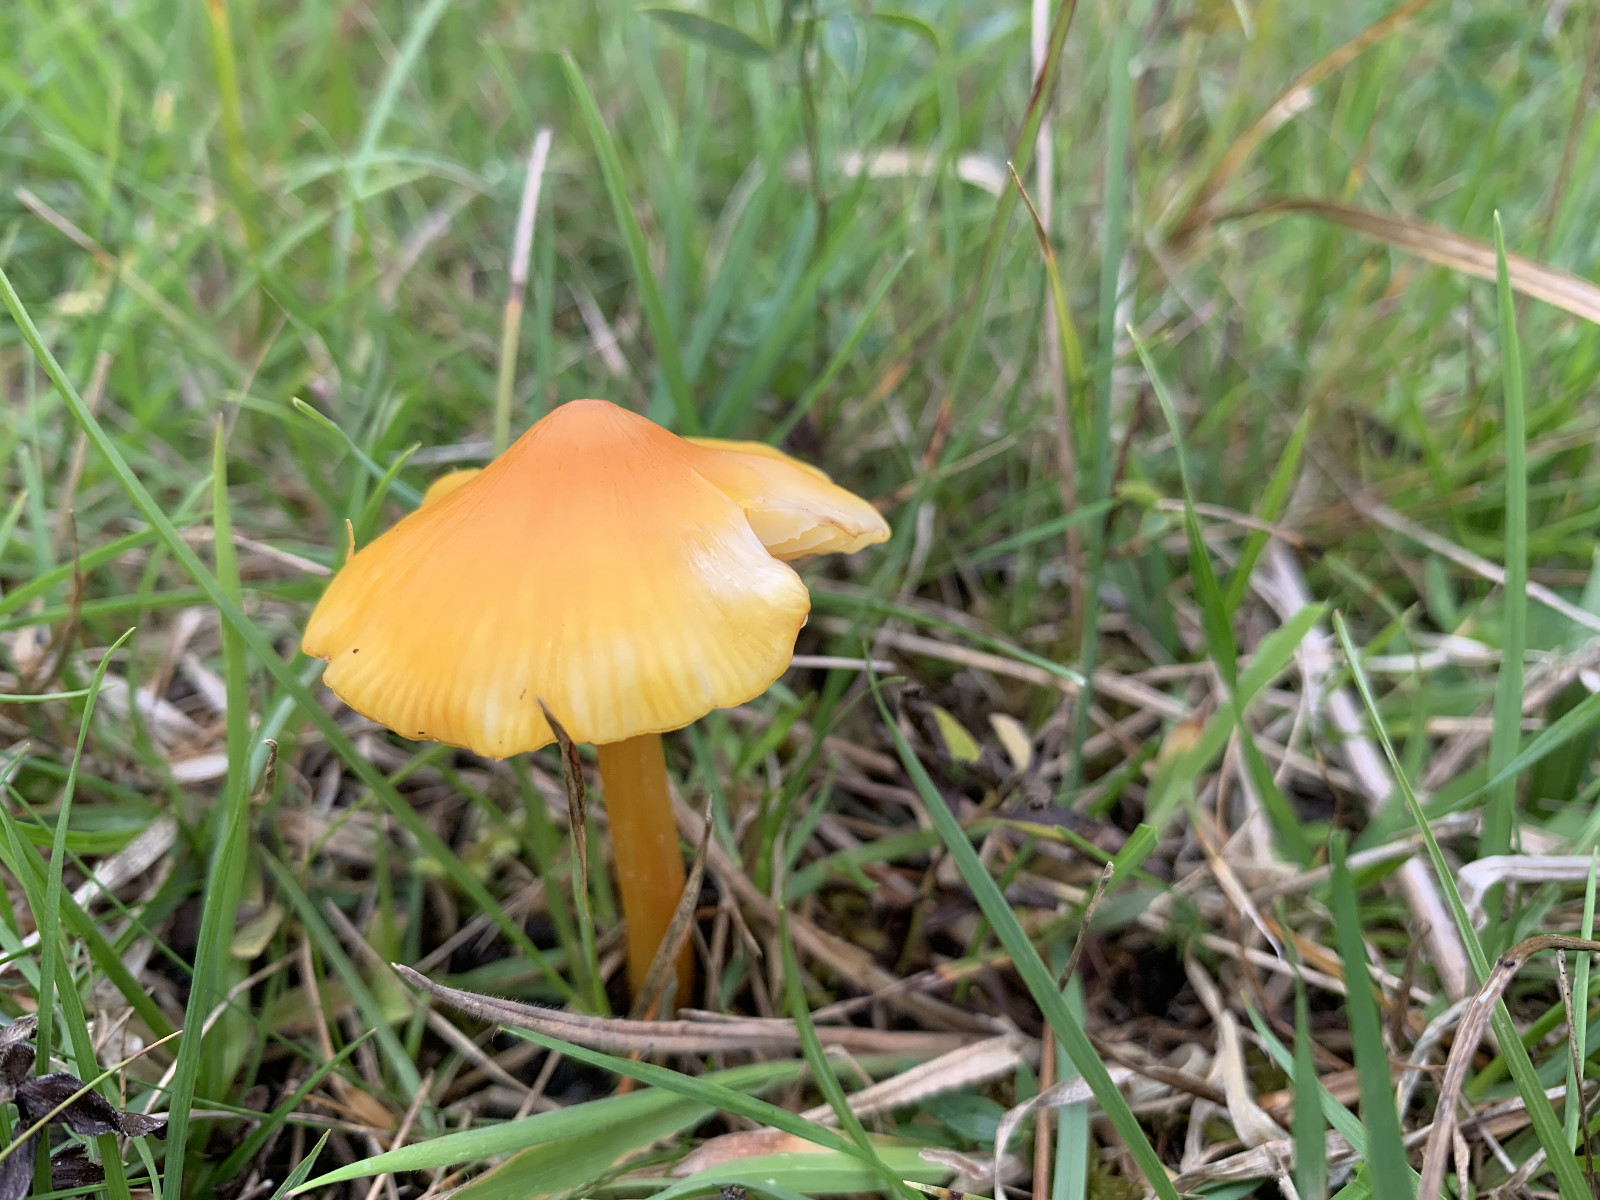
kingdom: Fungi
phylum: Basidiomycota
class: Agaricomycetes
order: Agaricales
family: Hygrophoraceae
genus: Hygrocybe
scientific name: Hygrocybe
